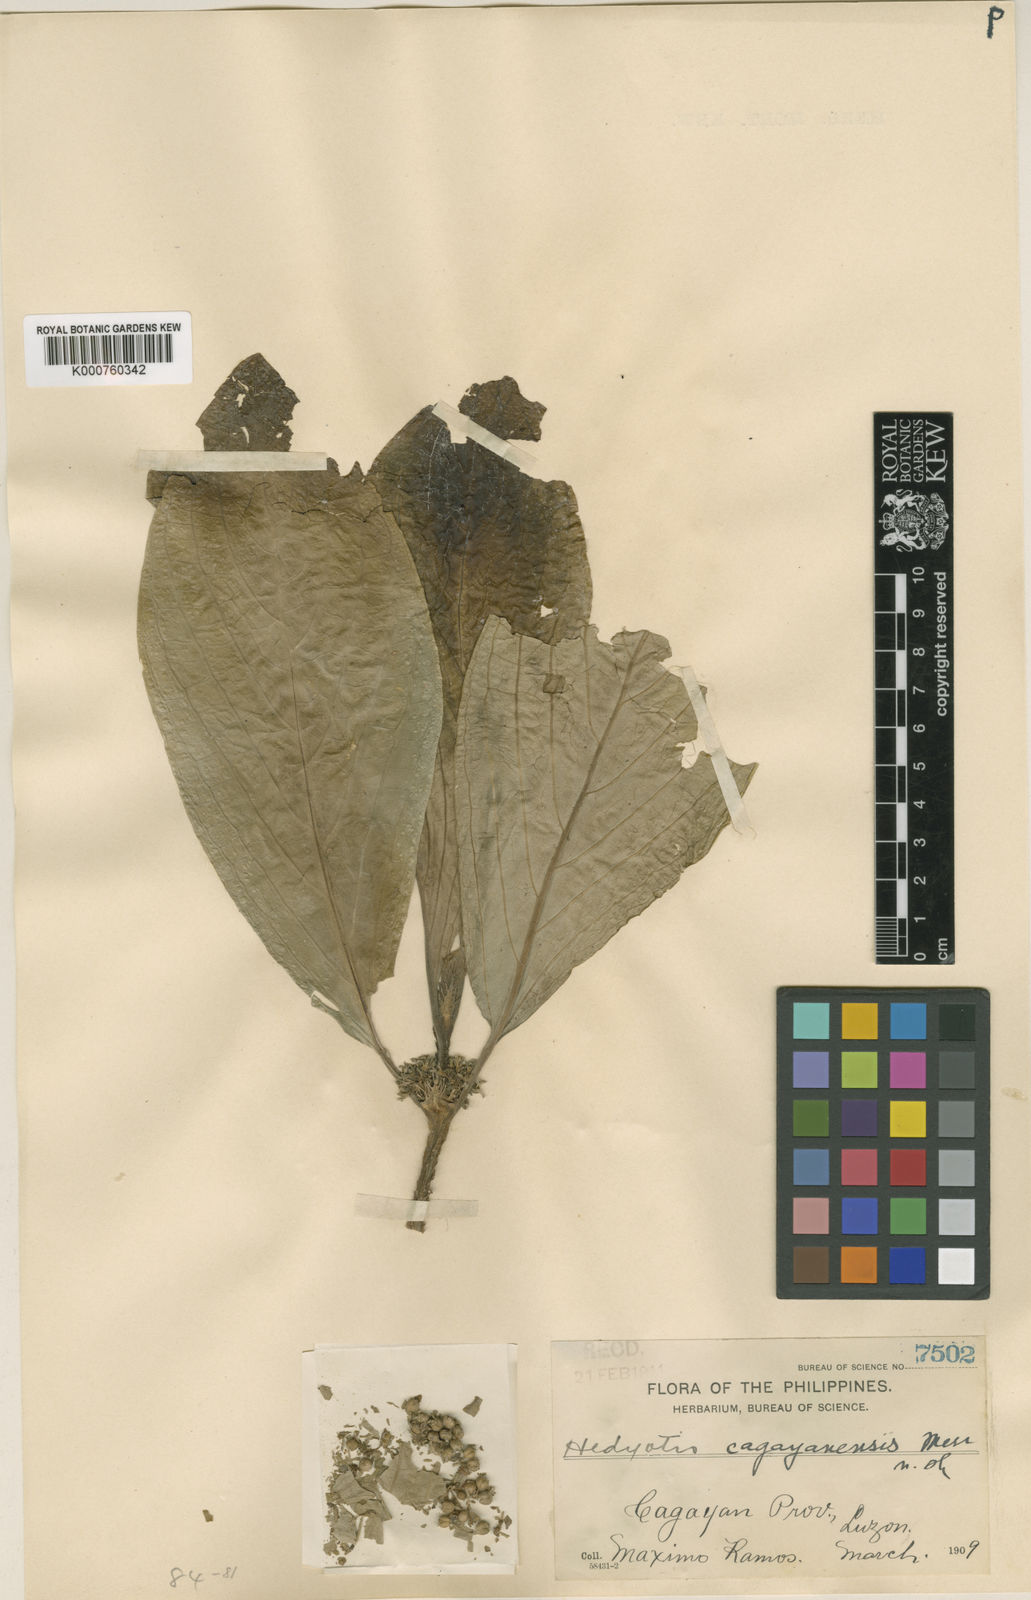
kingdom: Plantae
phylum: Tracheophyta
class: Magnoliopsida
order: Gentianales
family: Rubiaceae
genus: Hedyotis
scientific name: Hedyotis cagayanensis
